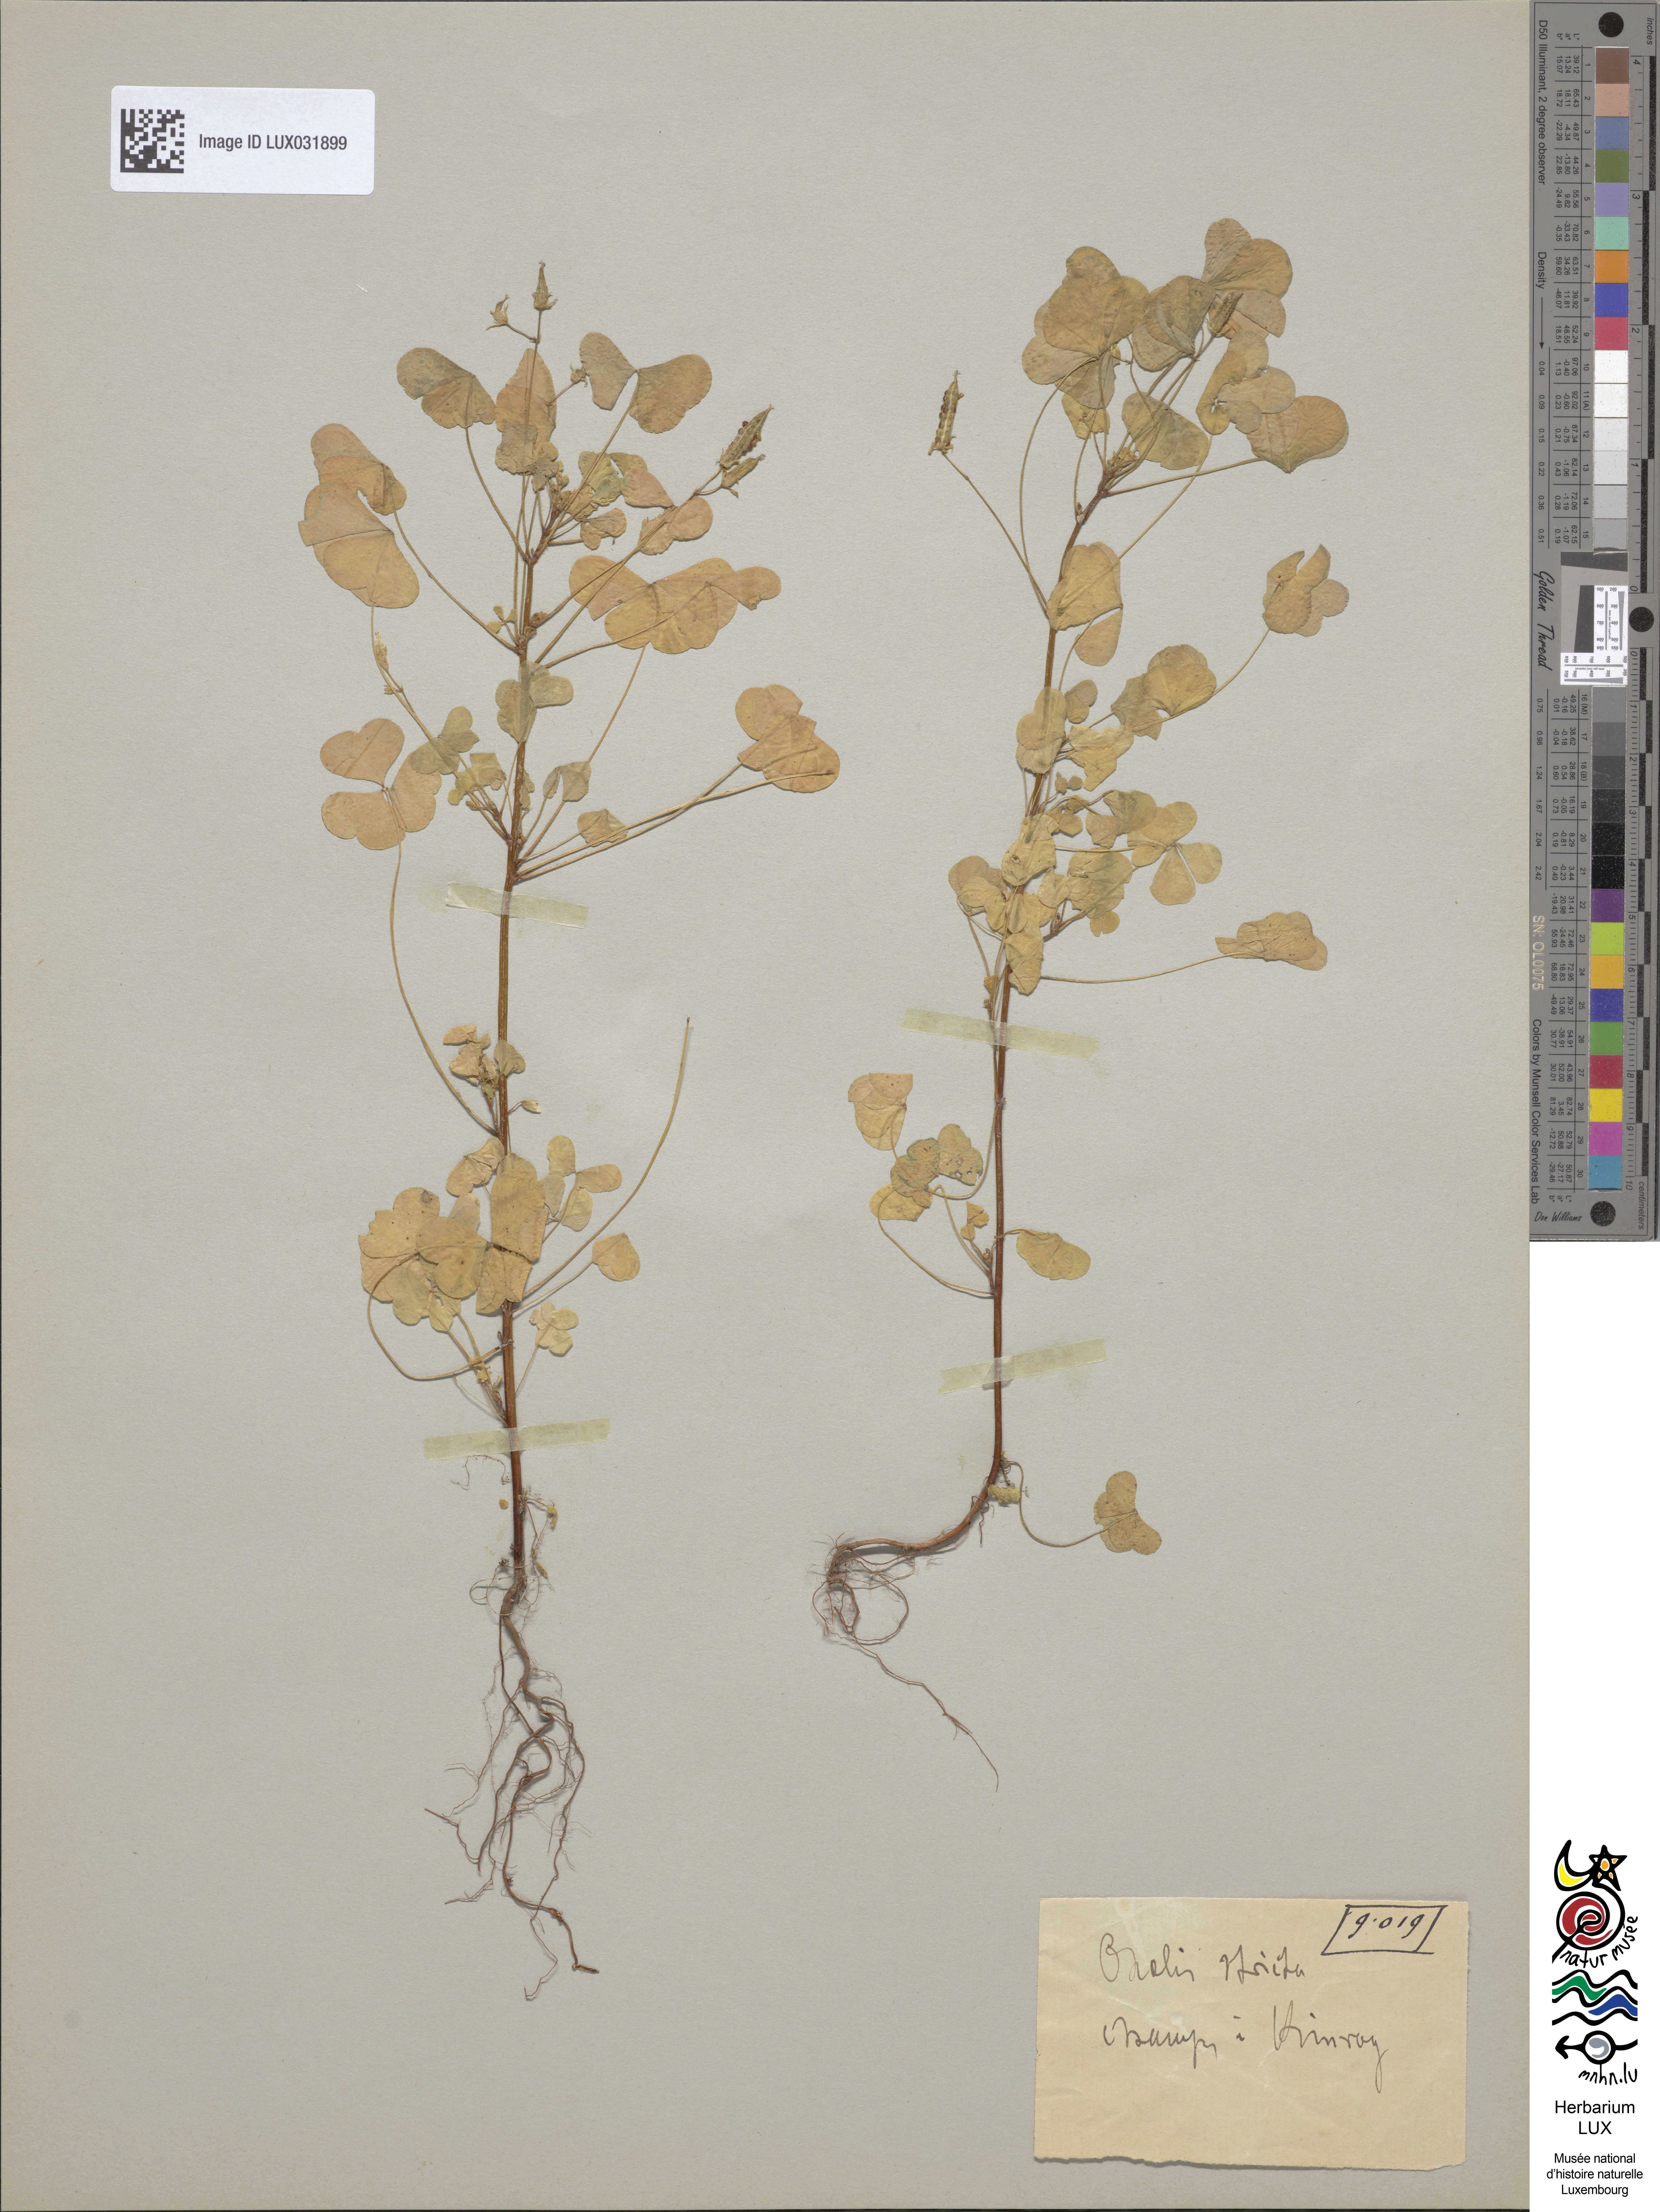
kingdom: Plantae
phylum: Tracheophyta
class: Magnoliopsida
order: Oxalidales
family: Oxalidaceae
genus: Oxalis
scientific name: Oxalis stricta
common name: Upright yellow-sorrel
